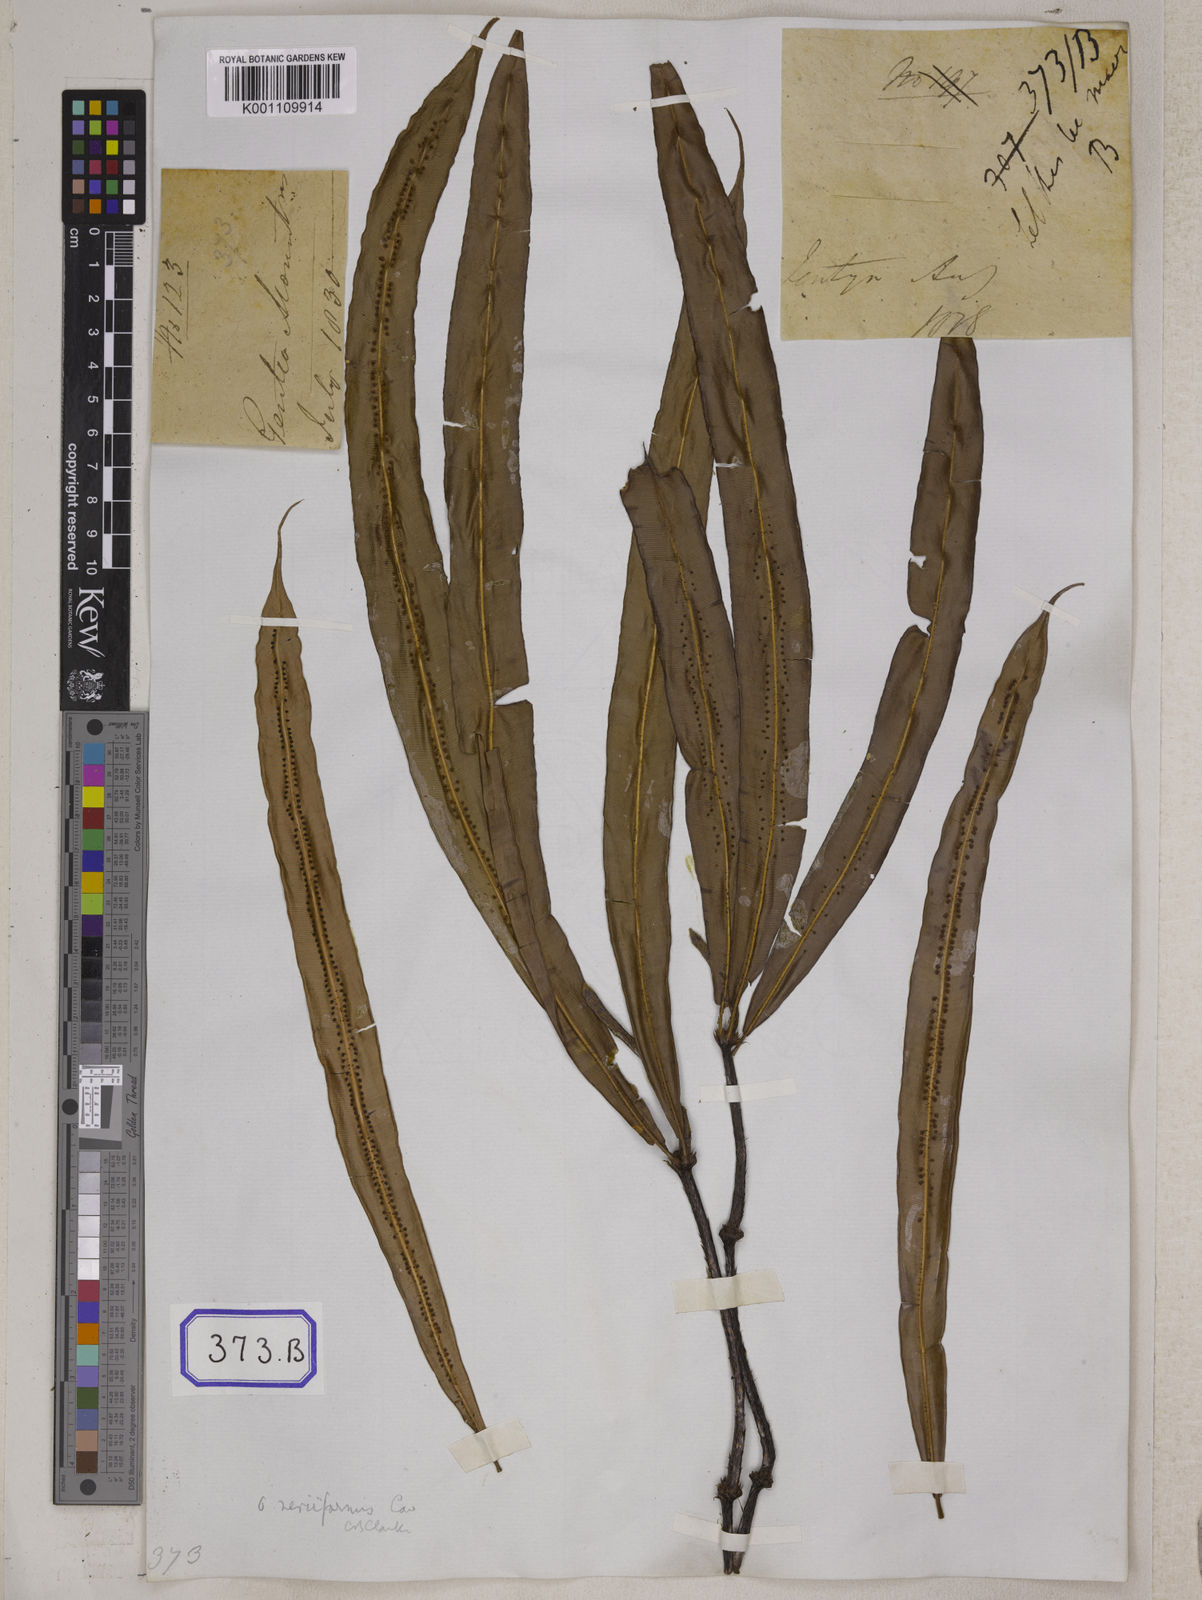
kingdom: Plantae
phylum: Tracheophyta
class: Polypodiopsida
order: Polypodiales
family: Tectariaceae
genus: Tectaria
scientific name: Tectaria Aspidium spec
